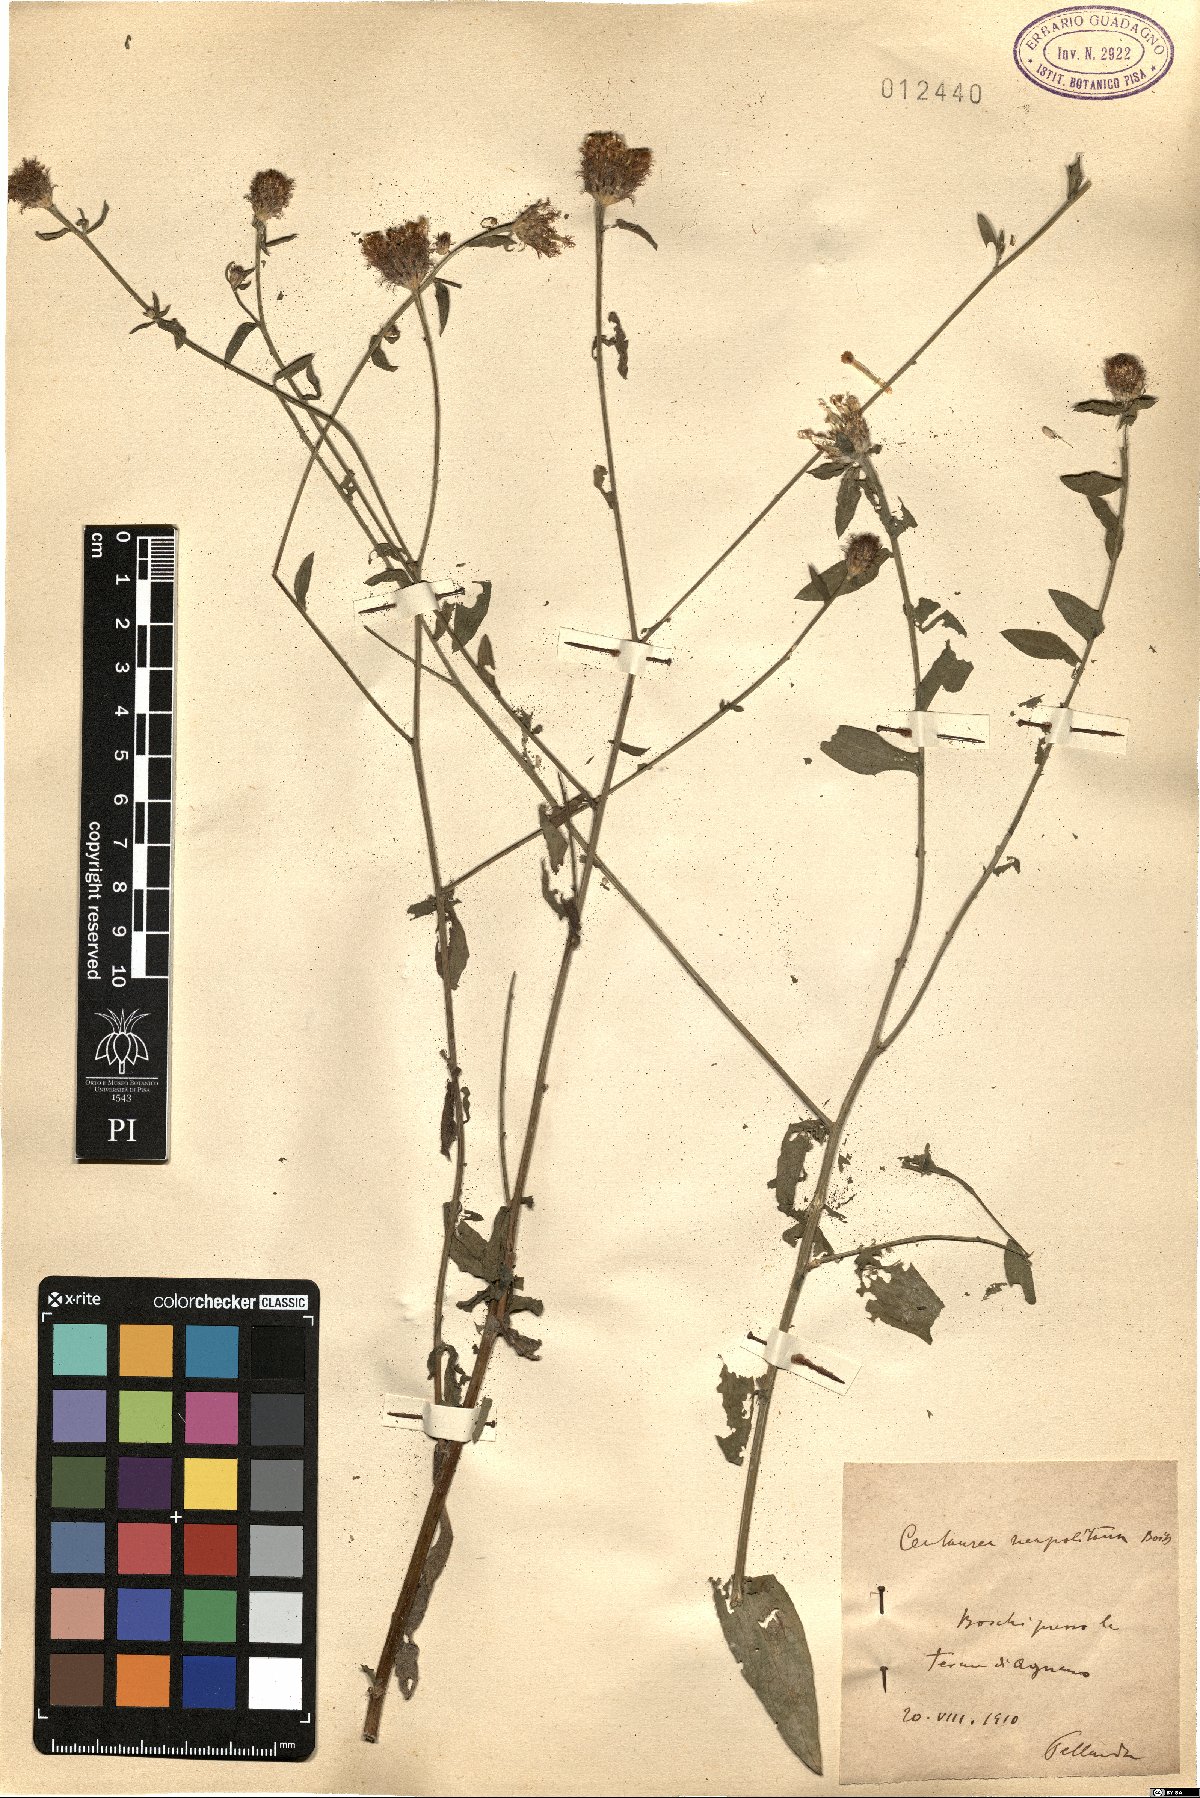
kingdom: Plantae
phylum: Tracheophyta
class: Magnoliopsida
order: Asterales
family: Asteraceae
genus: Centaurea
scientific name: Centaurea nigrescens
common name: Tyrol knapweed
